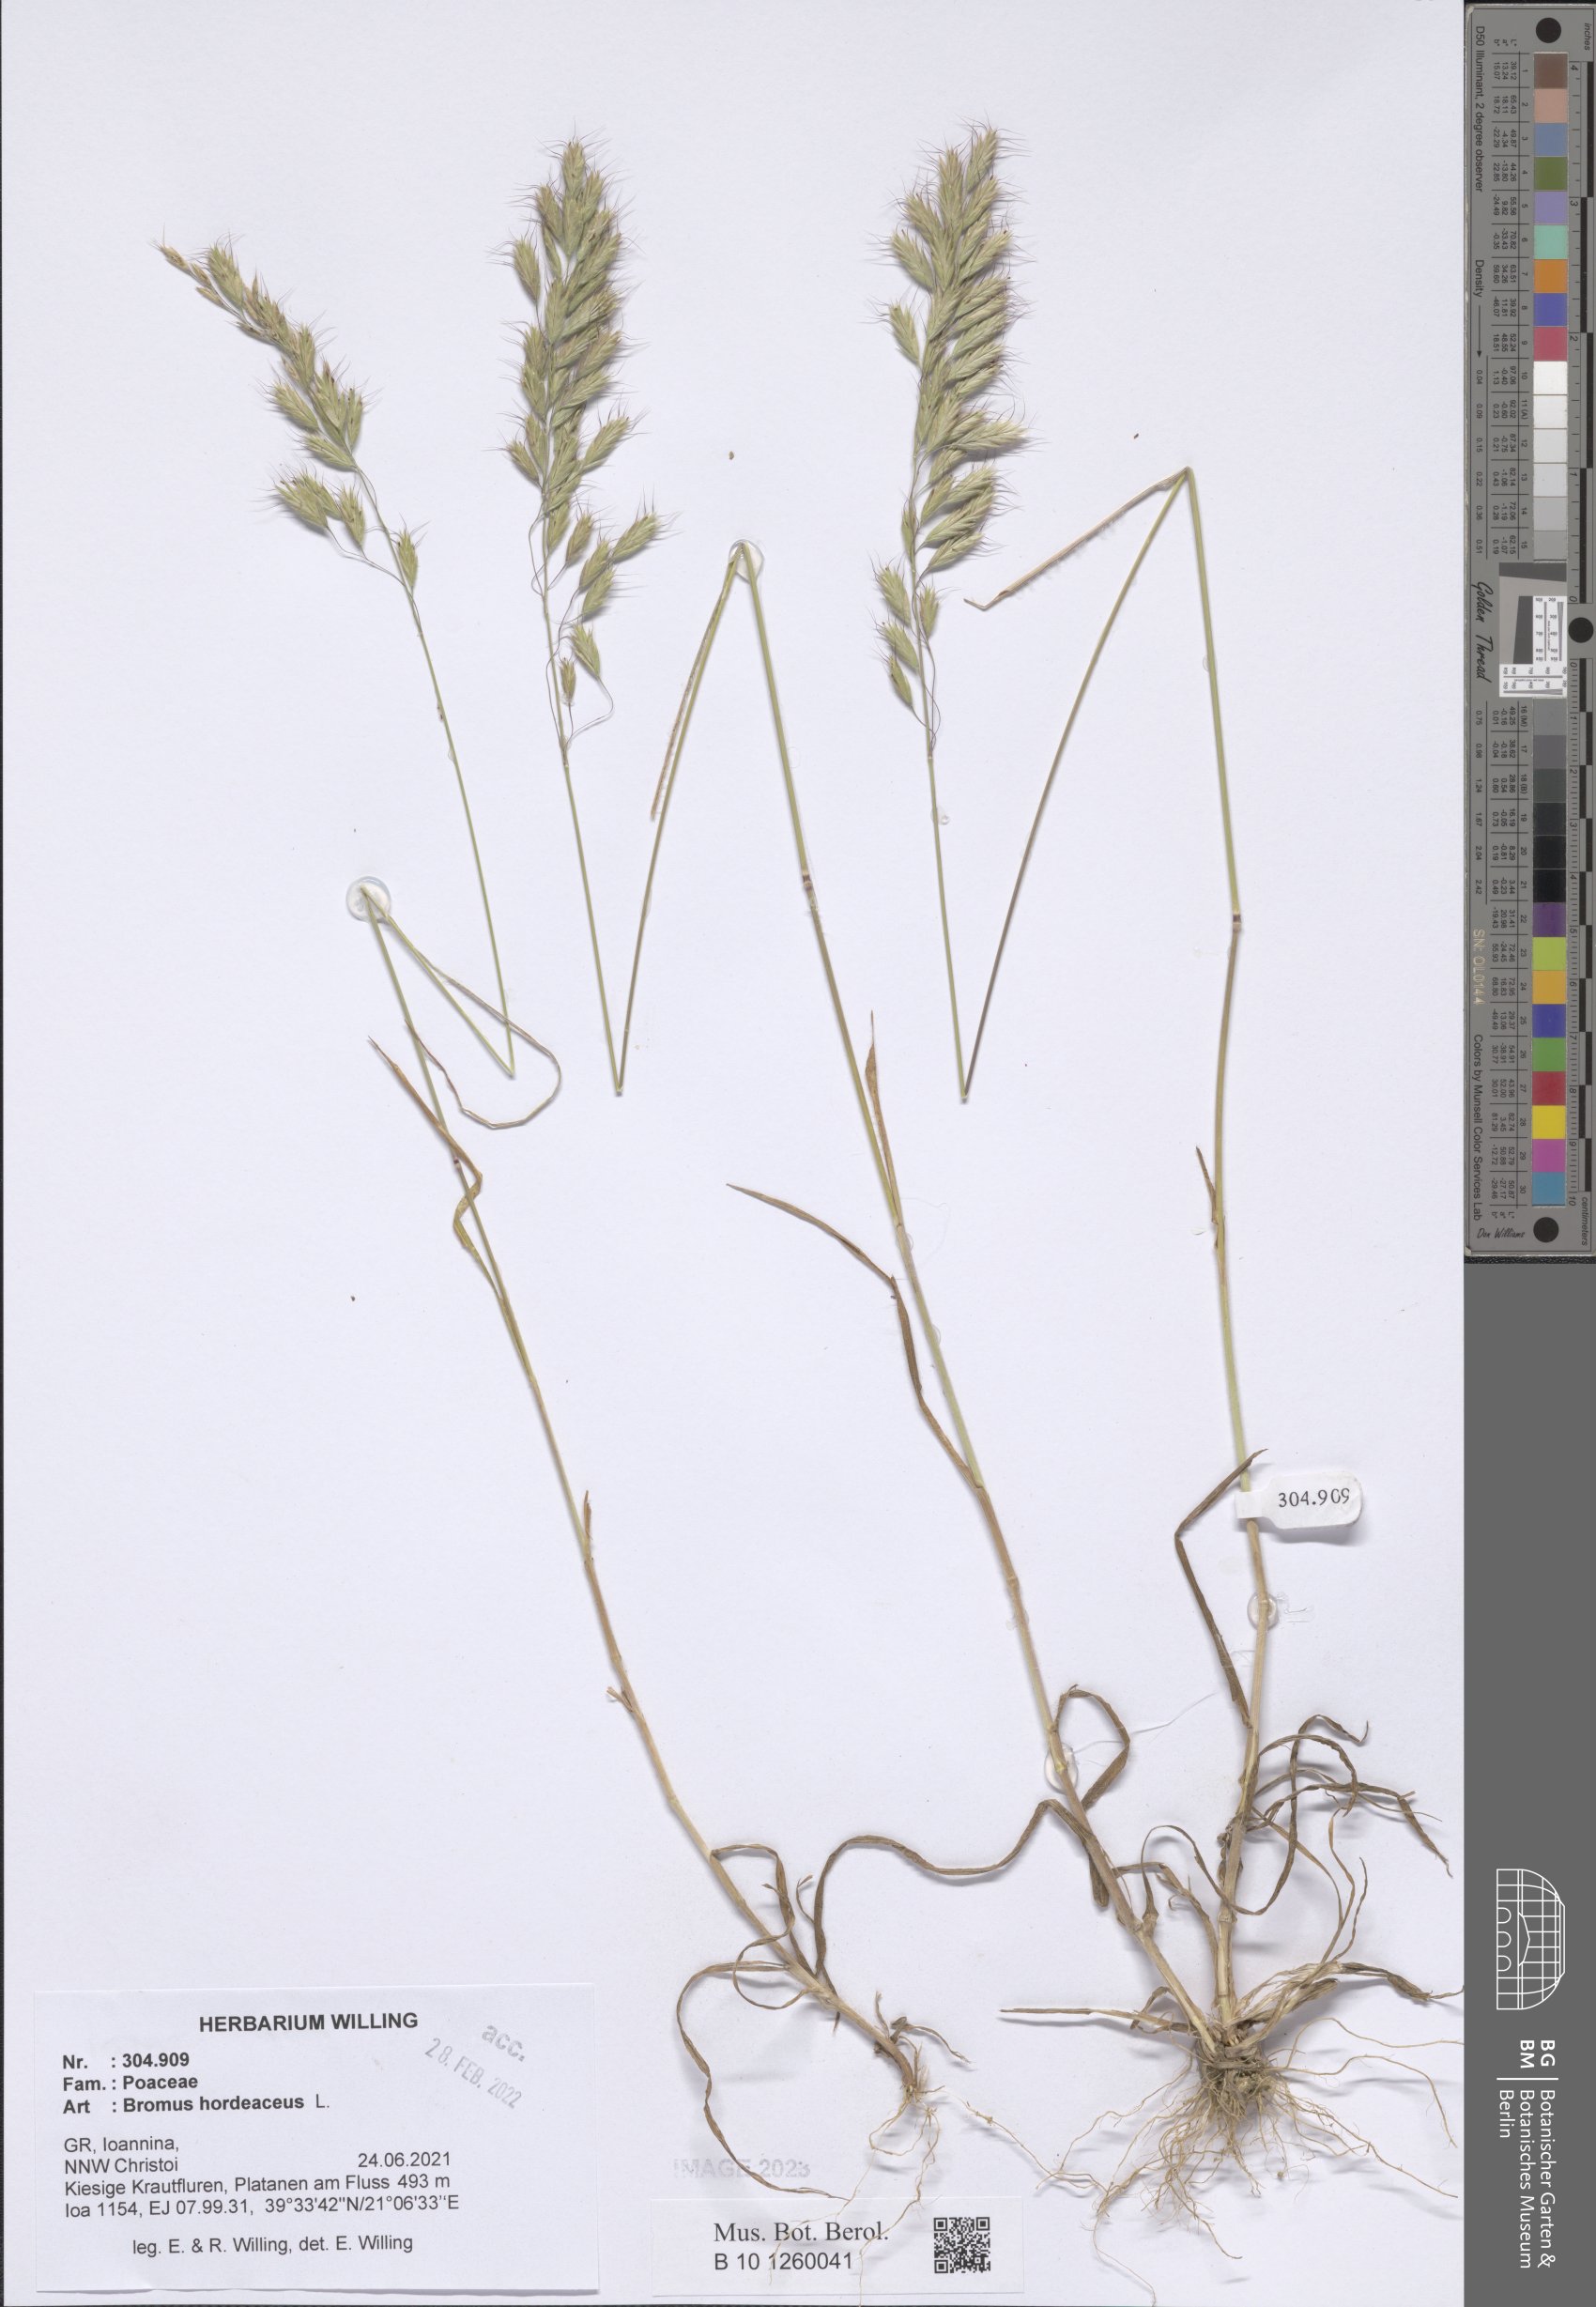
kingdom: Plantae
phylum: Tracheophyta
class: Liliopsida
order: Poales
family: Poaceae
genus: Bromus
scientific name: Bromus hordeaceus
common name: Soft brome
